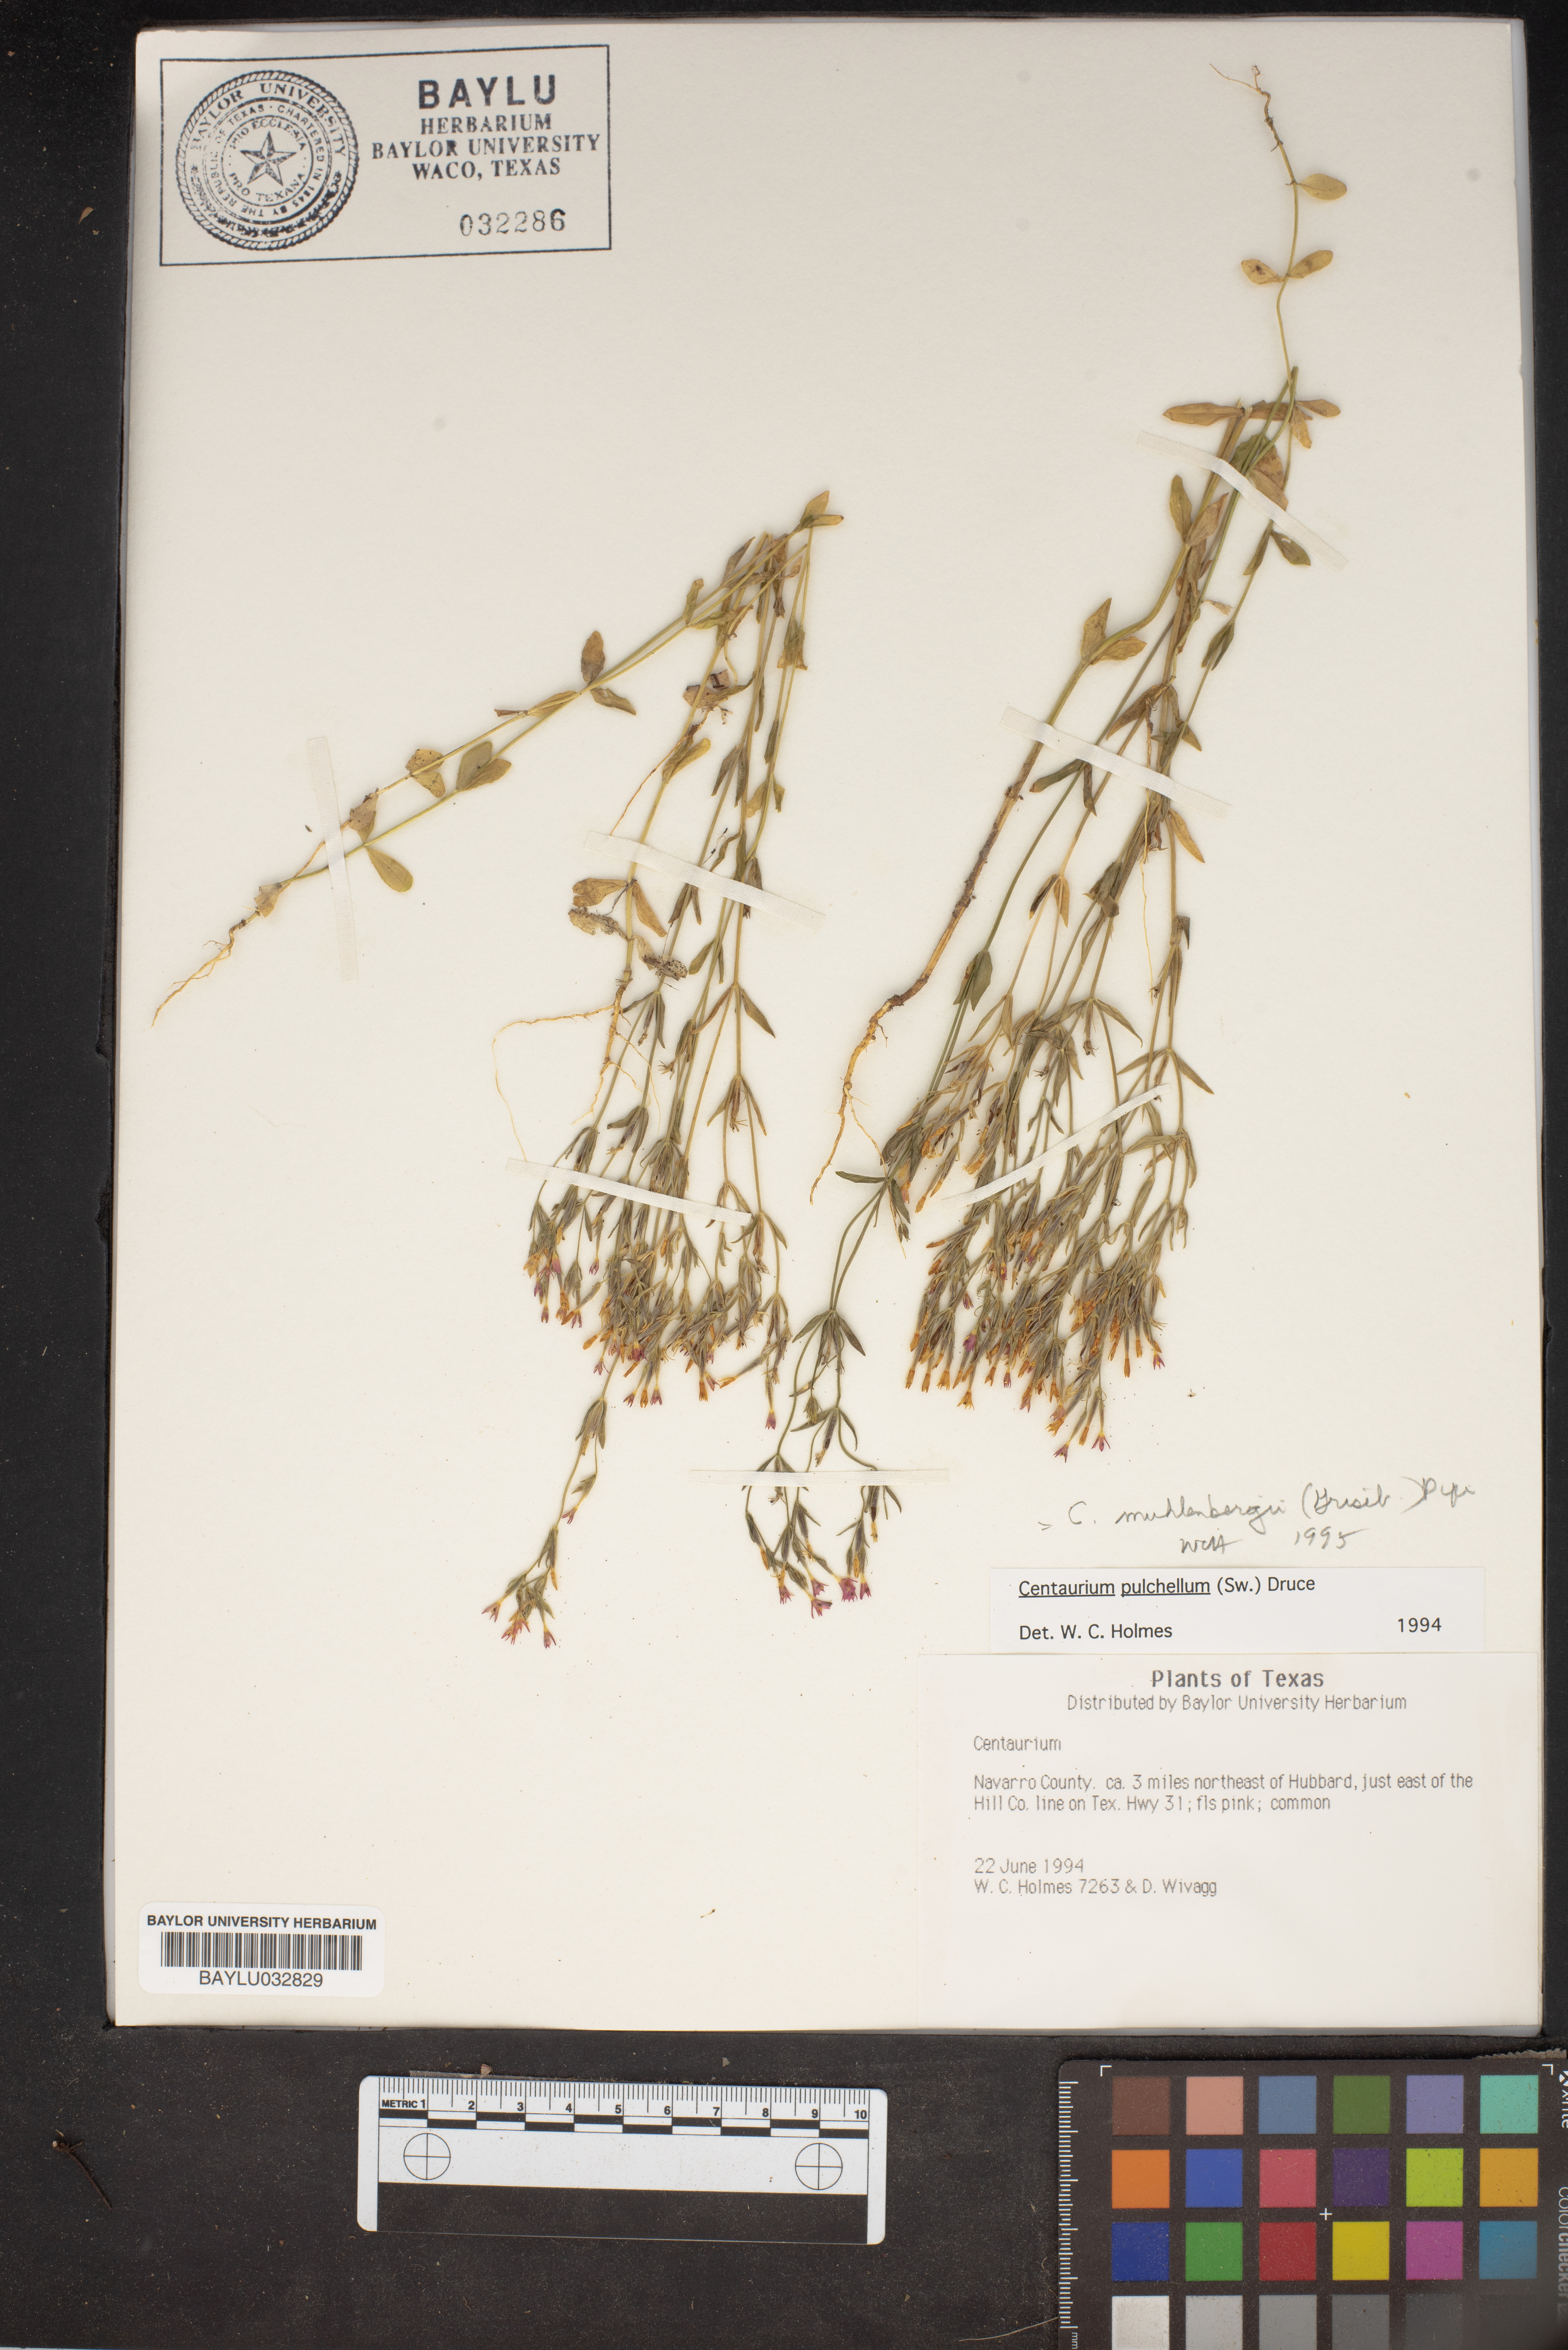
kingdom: Plantae
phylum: Tracheophyta
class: Magnoliopsida
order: Gentianales
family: Gentianaceae
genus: Centaurium
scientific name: Centaurium pulchellum
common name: Lesser centaury
